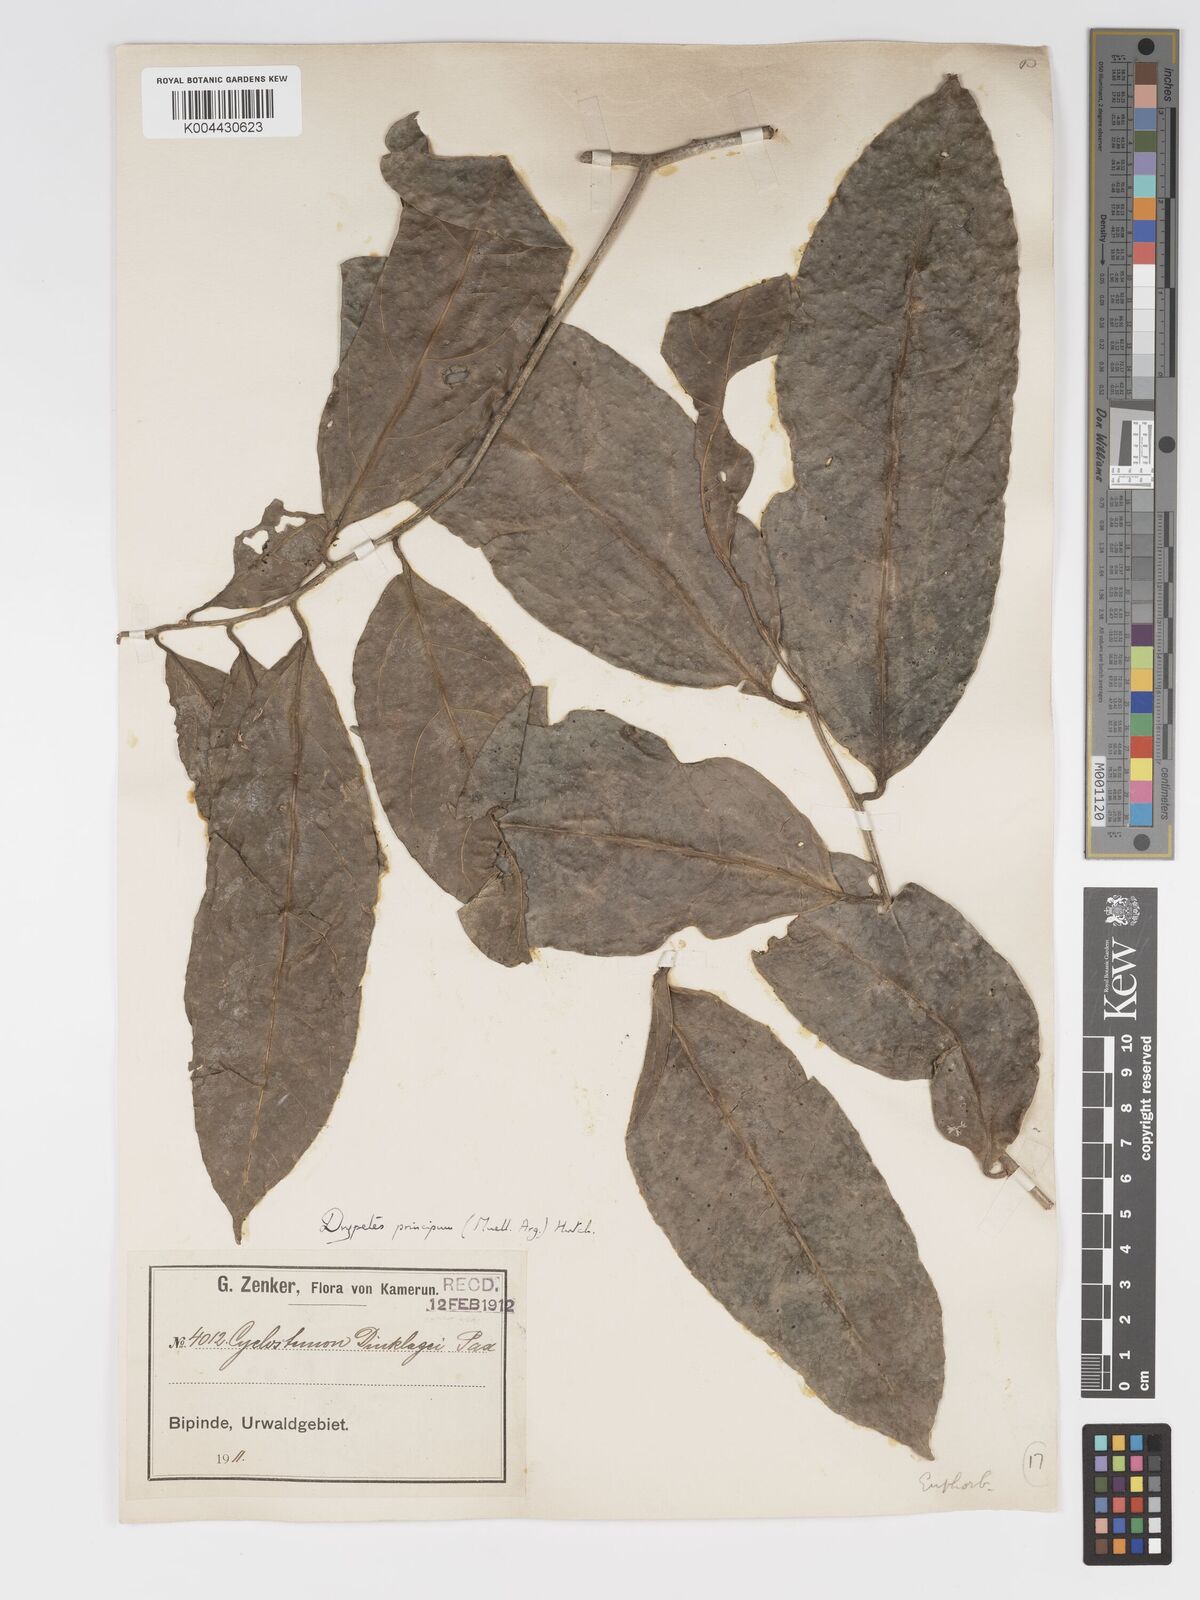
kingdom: Plantae
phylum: Tracheophyta
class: Magnoliopsida
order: Malpighiales
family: Putranjivaceae
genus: Drypetes
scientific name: Drypetes principum
